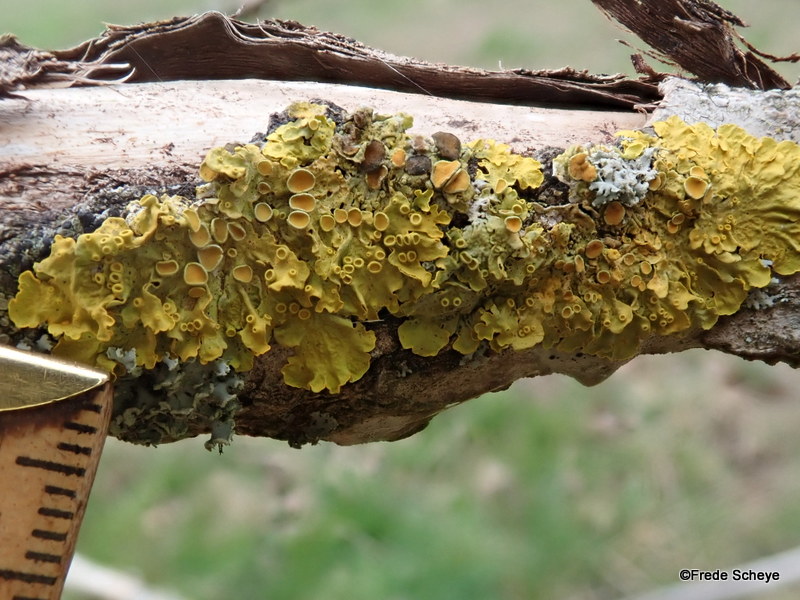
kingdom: Fungi
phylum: Ascomycota
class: Lecanoromycetes
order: Teloschistales
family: Teloschistaceae
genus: Xanthoria
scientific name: Xanthoria parietina
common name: almindelig væggelav
